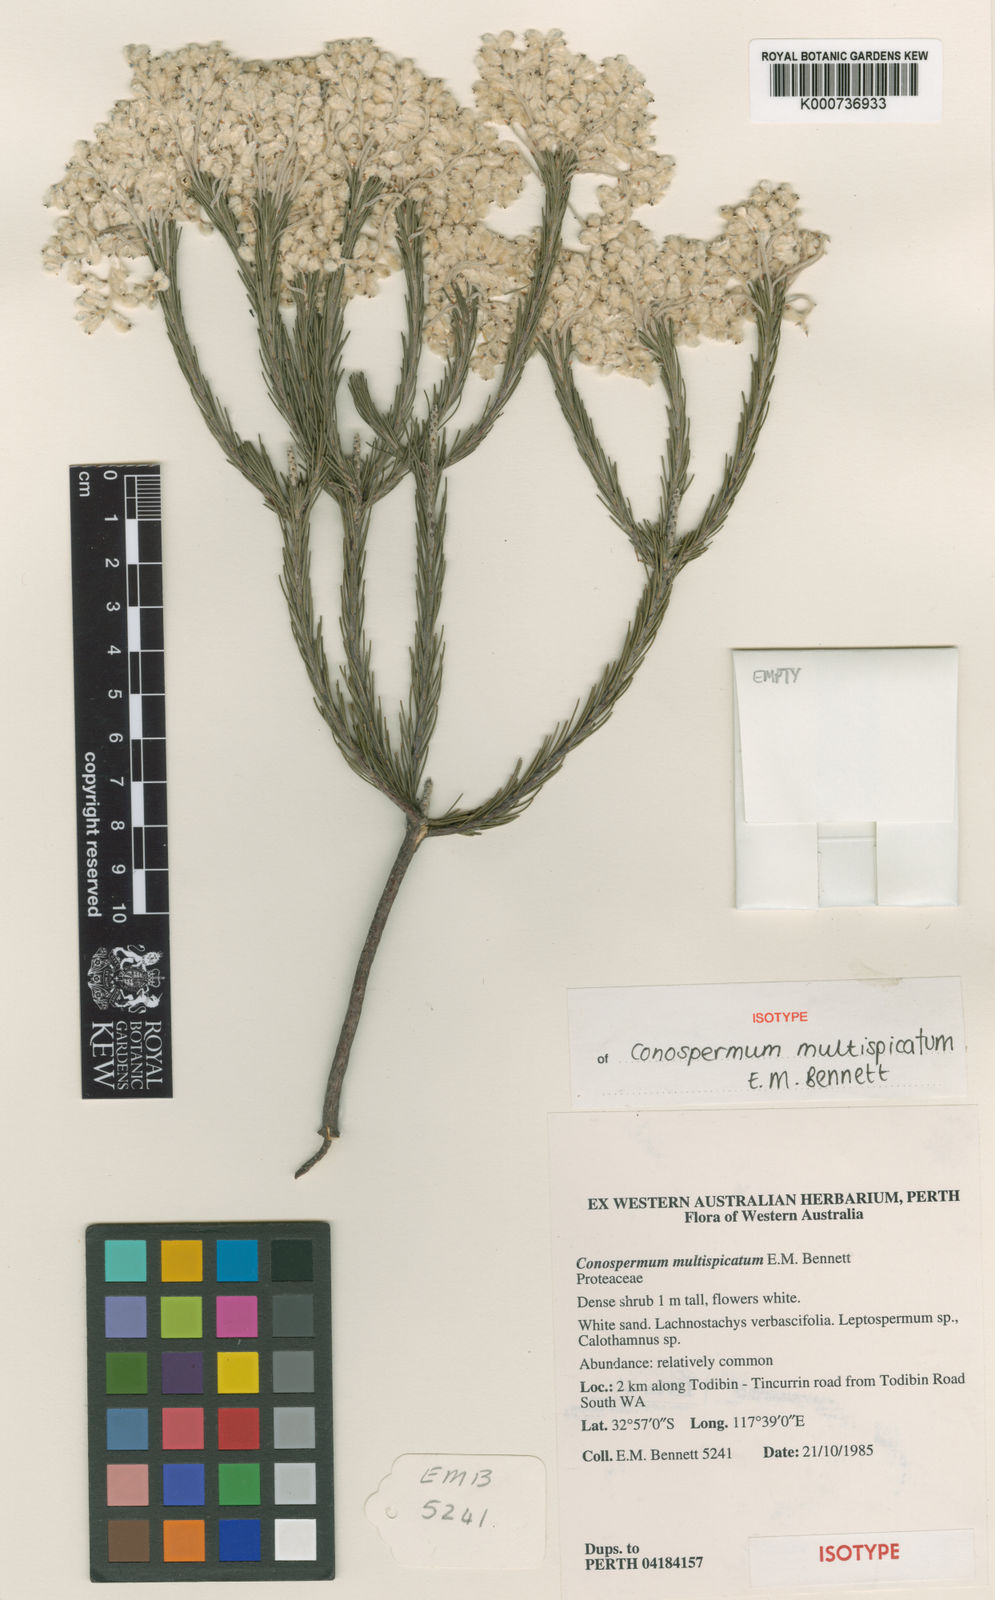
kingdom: Plantae
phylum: Tracheophyta
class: Magnoliopsida
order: Proteales
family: Proteaceae
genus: Conospermum
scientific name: Conospermum multispicatum
